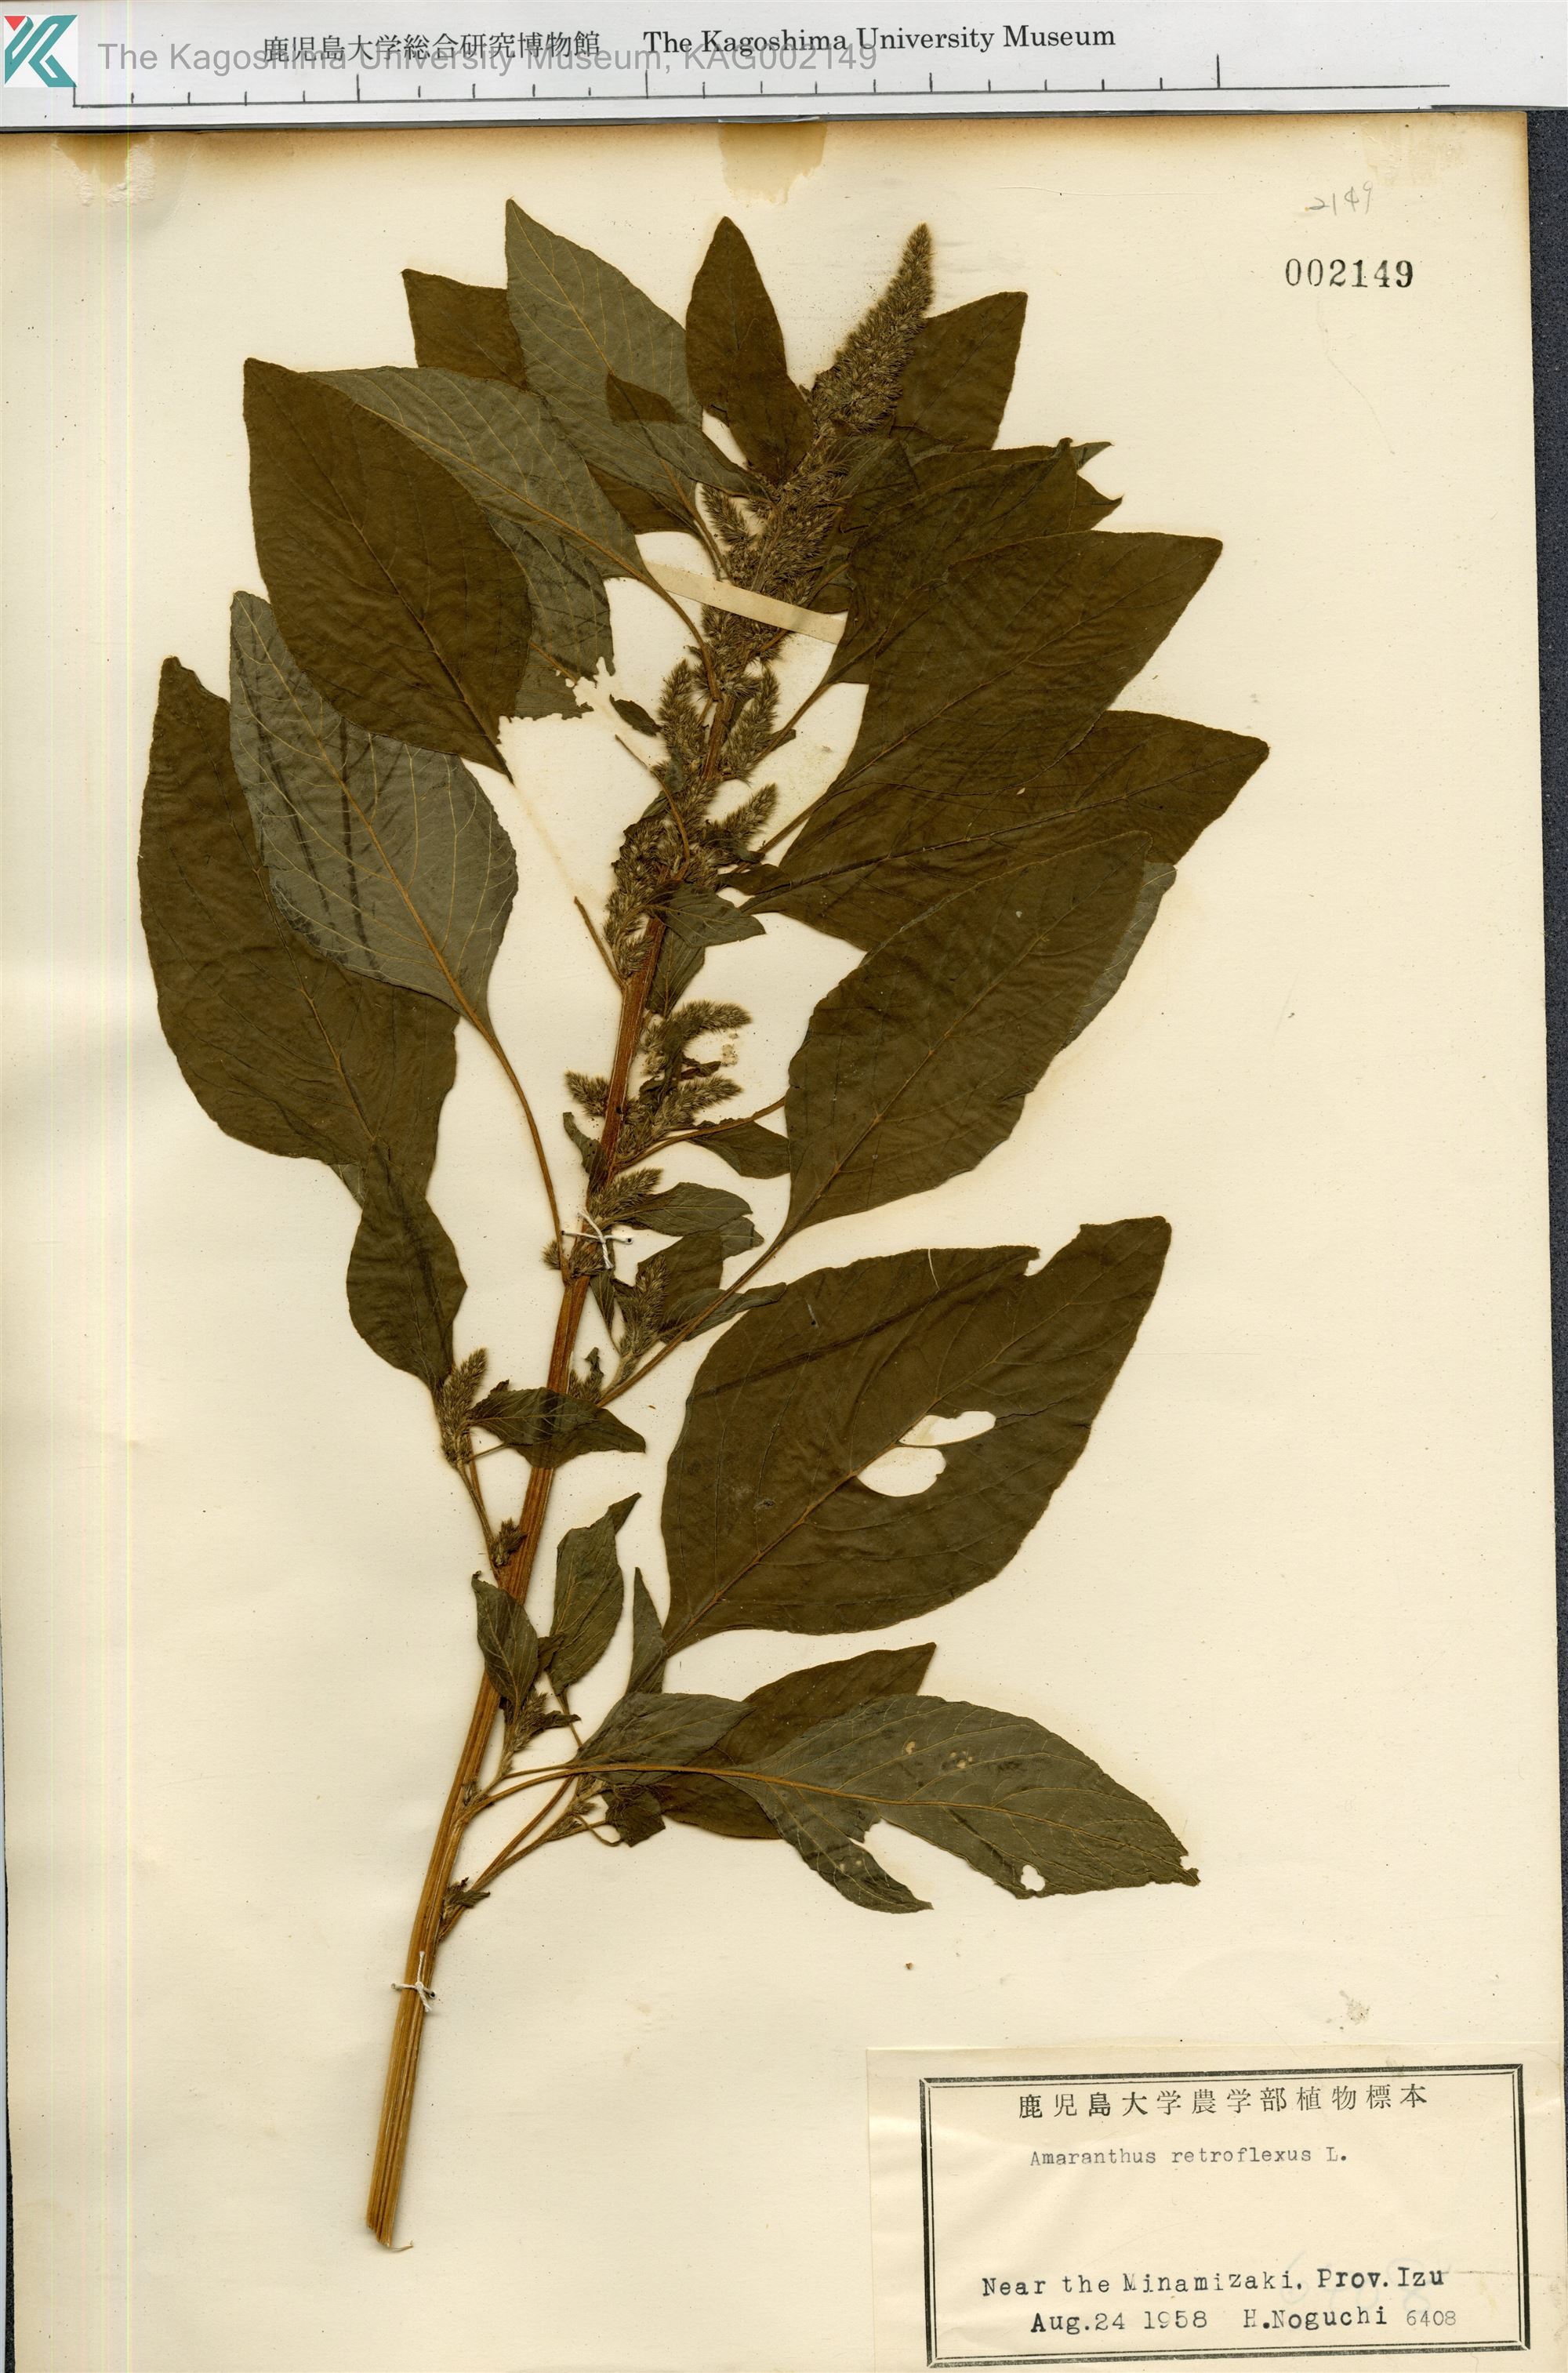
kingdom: Plantae
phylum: Tracheophyta
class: Magnoliopsida
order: Caryophyllales
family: Amaranthaceae
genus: Amaranthus
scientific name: Amaranthus retroflexus
